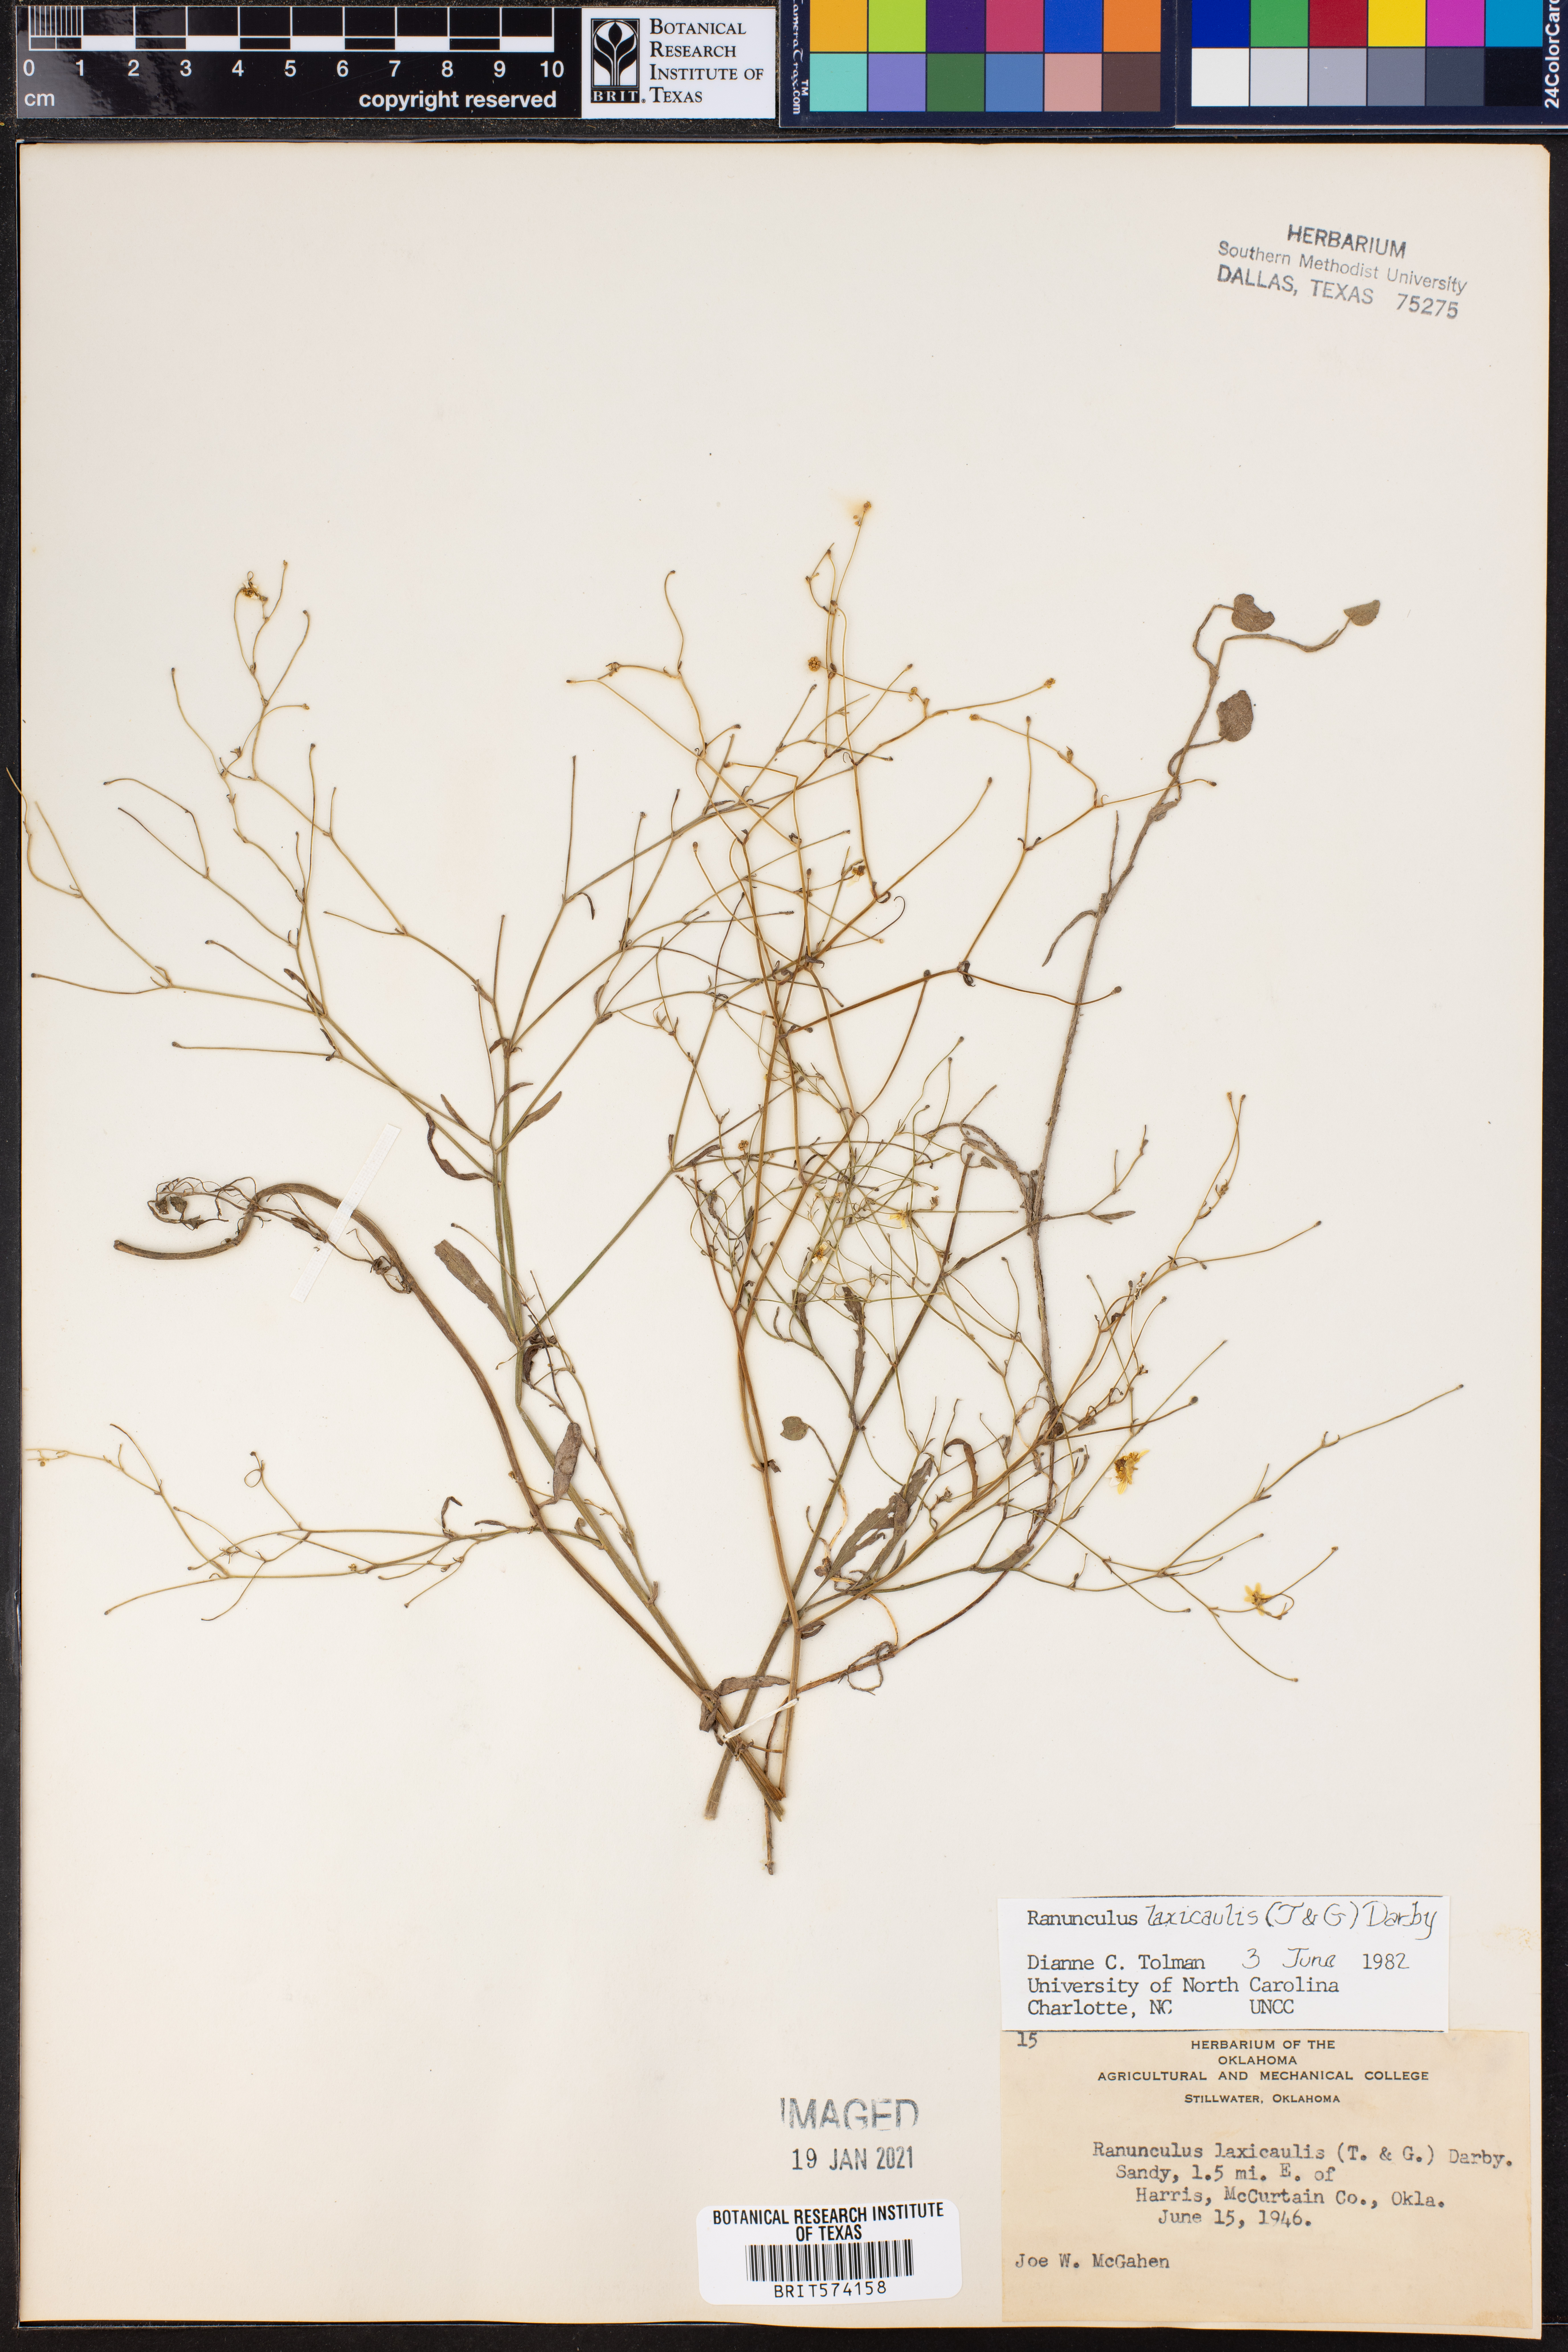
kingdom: Plantae
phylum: Tracheophyta
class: Magnoliopsida
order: Ranunculales
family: Ranunculaceae
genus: Ranunculus
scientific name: Ranunculus laxicaulis
